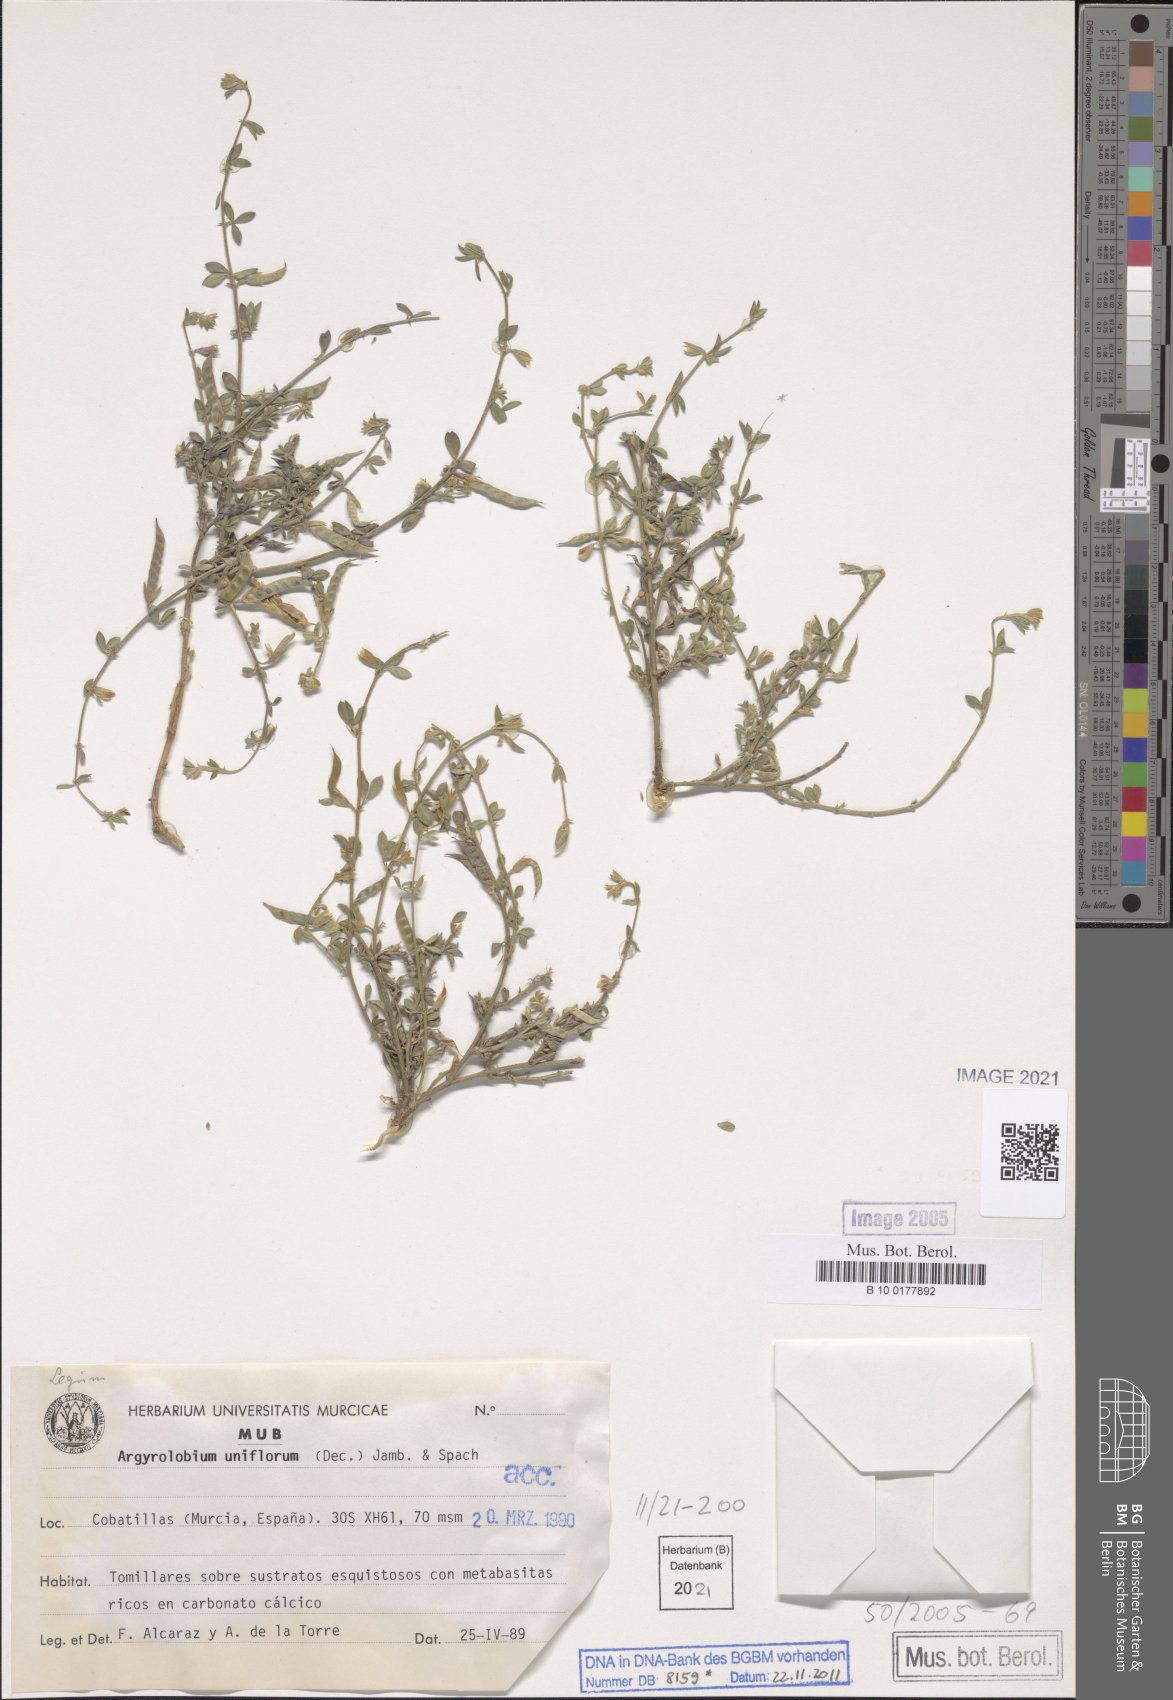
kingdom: Plantae
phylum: Tracheophyta
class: Magnoliopsida
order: Fabales
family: Fabaceae
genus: Argyrolobium
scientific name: Argyrolobium uniflorum
